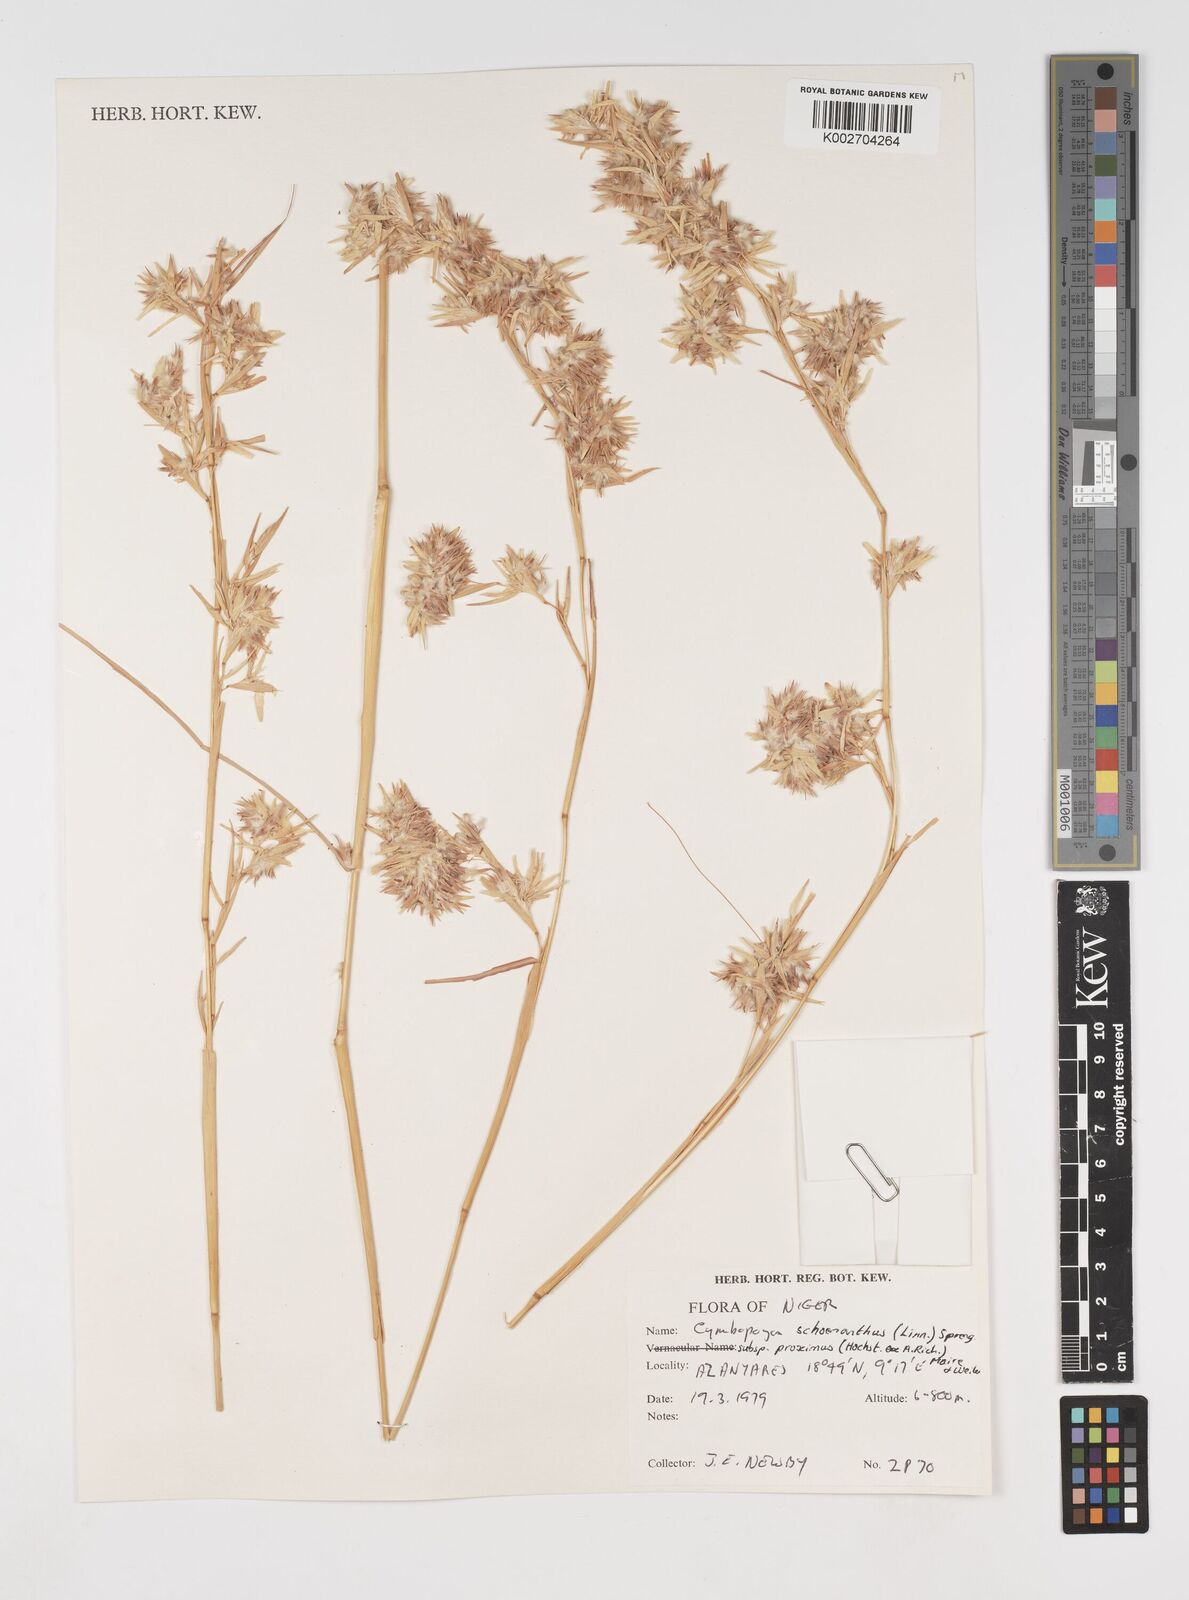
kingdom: Plantae
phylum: Tracheophyta
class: Liliopsida
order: Poales
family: Poaceae
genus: Cymbopogon
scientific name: Cymbopogon schoenanthus
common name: Geranium grass
